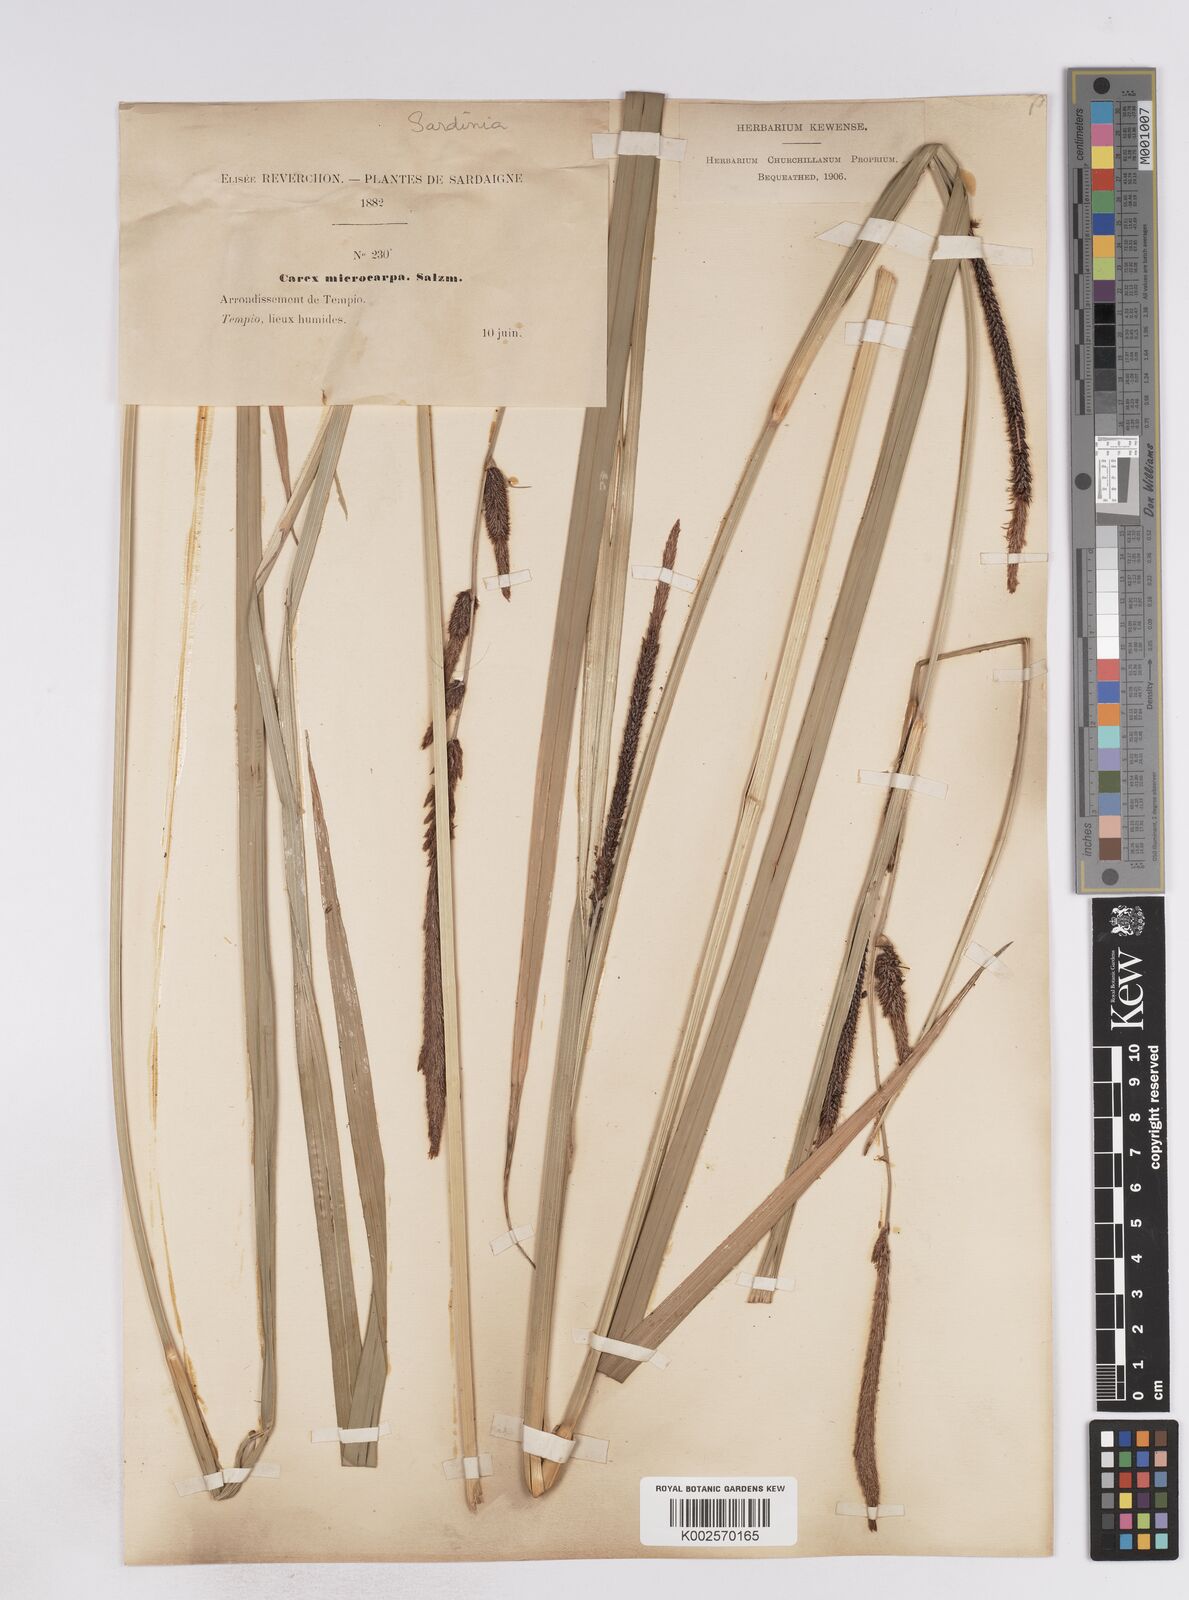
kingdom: Plantae
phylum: Tracheophyta
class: Liliopsida
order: Poales
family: Cyperaceae
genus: Carex
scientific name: Carex microcarpa
